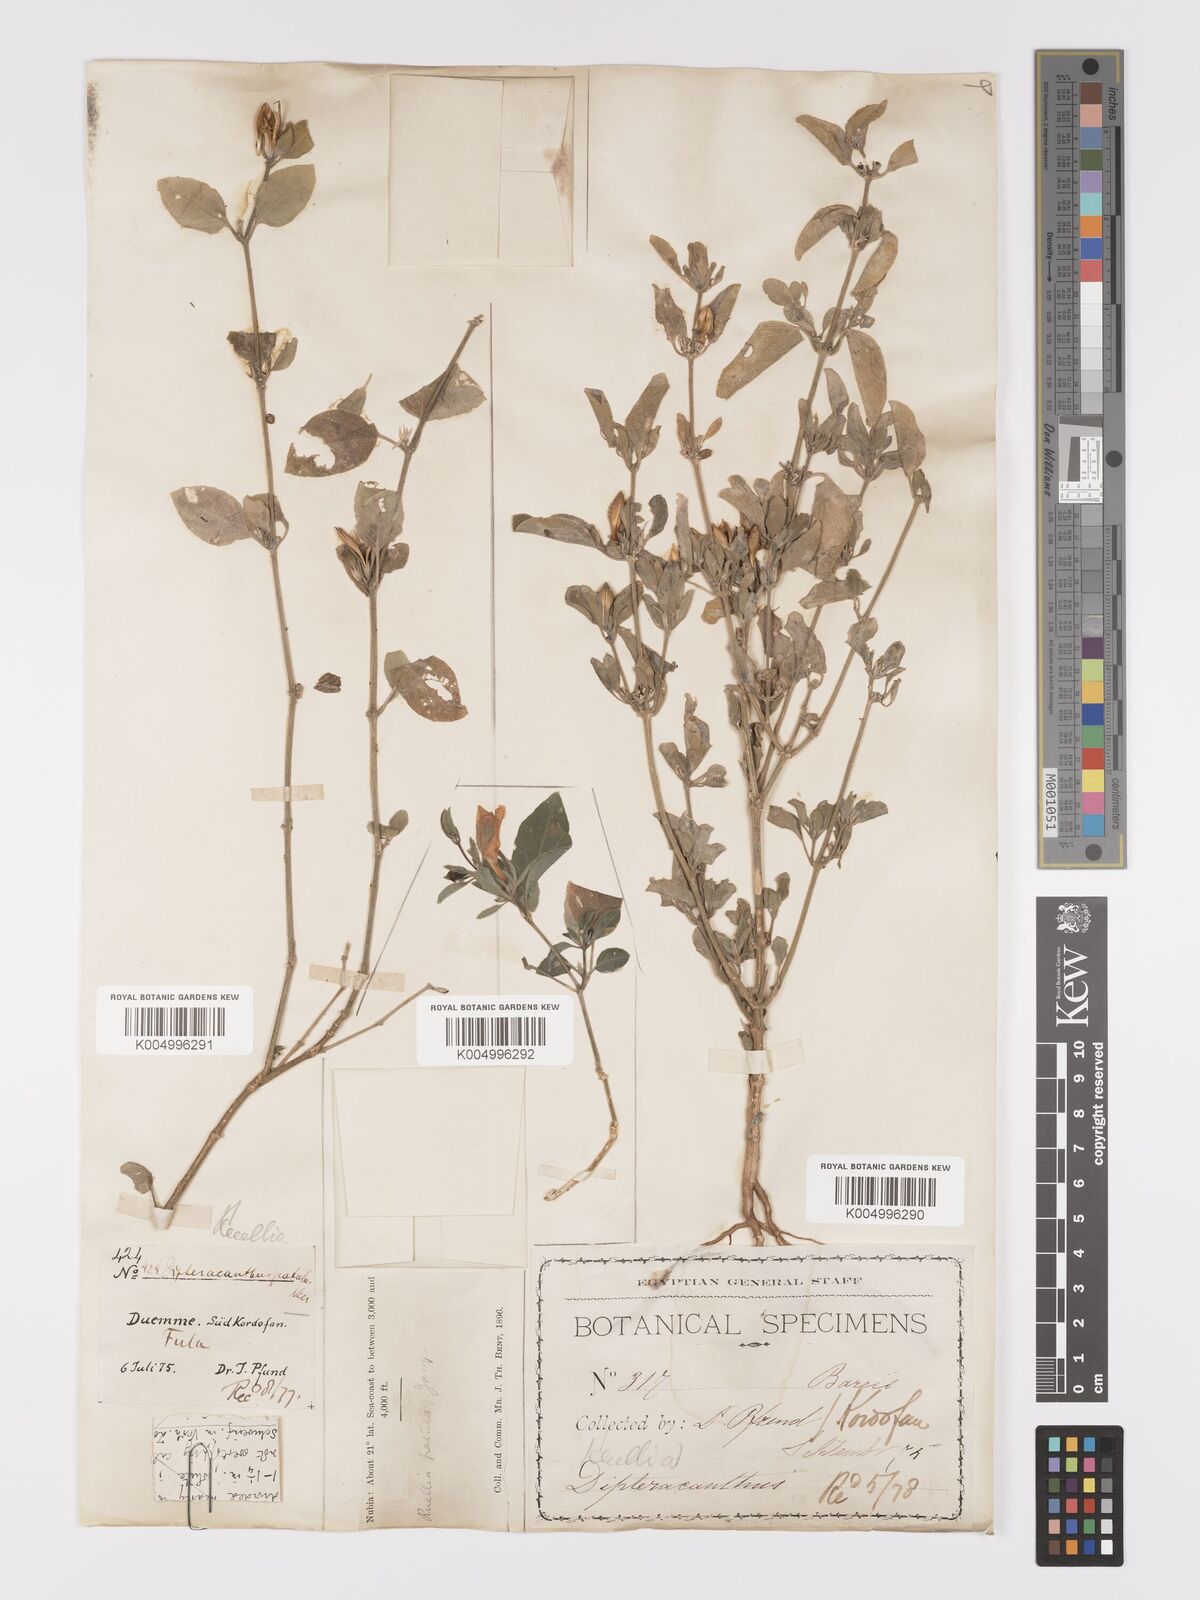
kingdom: Plantae
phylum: Tracheophyta
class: Magnoliopsida
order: Lamiales
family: Acanthaceae
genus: Ruellia
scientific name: Ruellia patula
